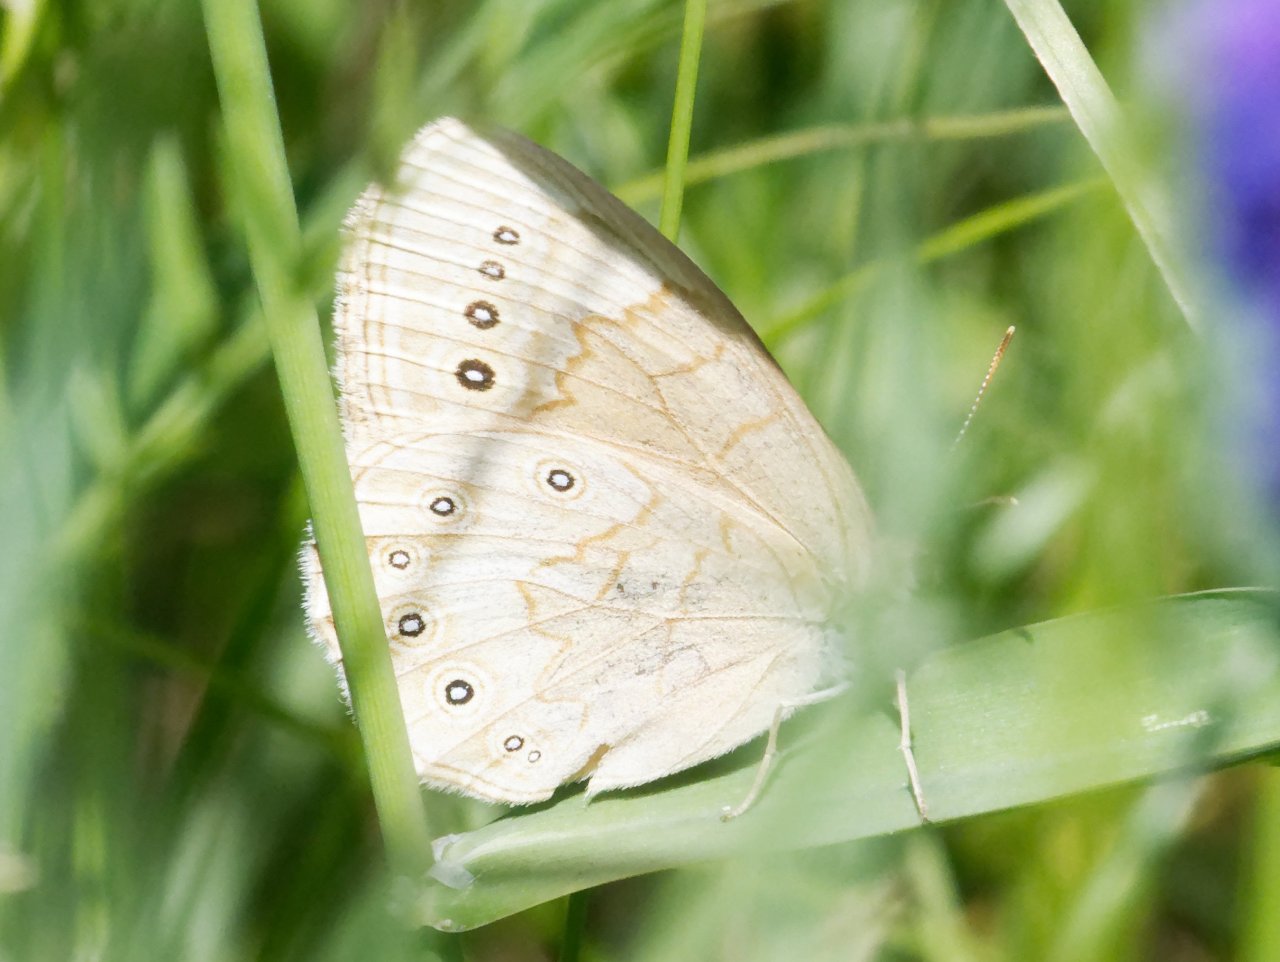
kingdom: Animalia
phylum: Arthropoda
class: Insecta
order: Lepidoptera
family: Nymphalidae
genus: Lethe
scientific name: Lethe eurydice
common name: Eyed Brown
